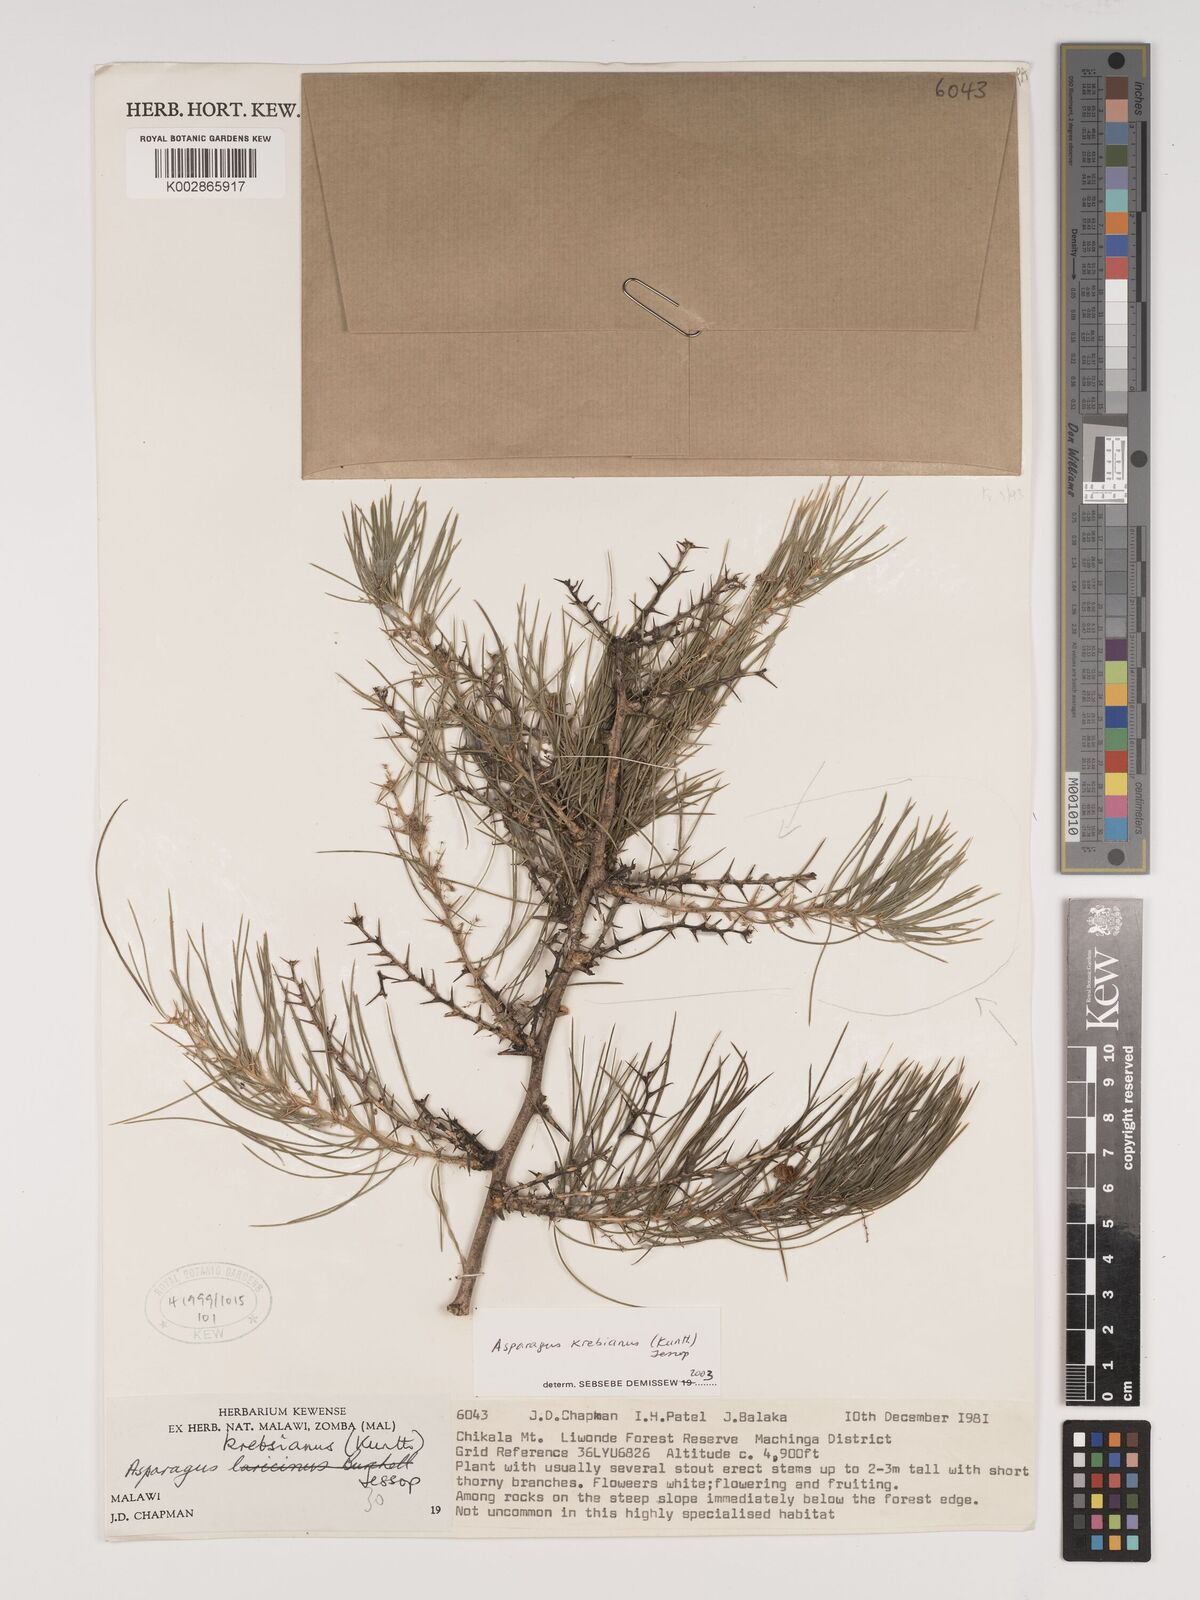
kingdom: Plantae
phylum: Tracheophyta
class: Liliopsida
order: Asparagales
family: Asparagaceae
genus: Asparagus
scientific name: Asparagus krebsianus
